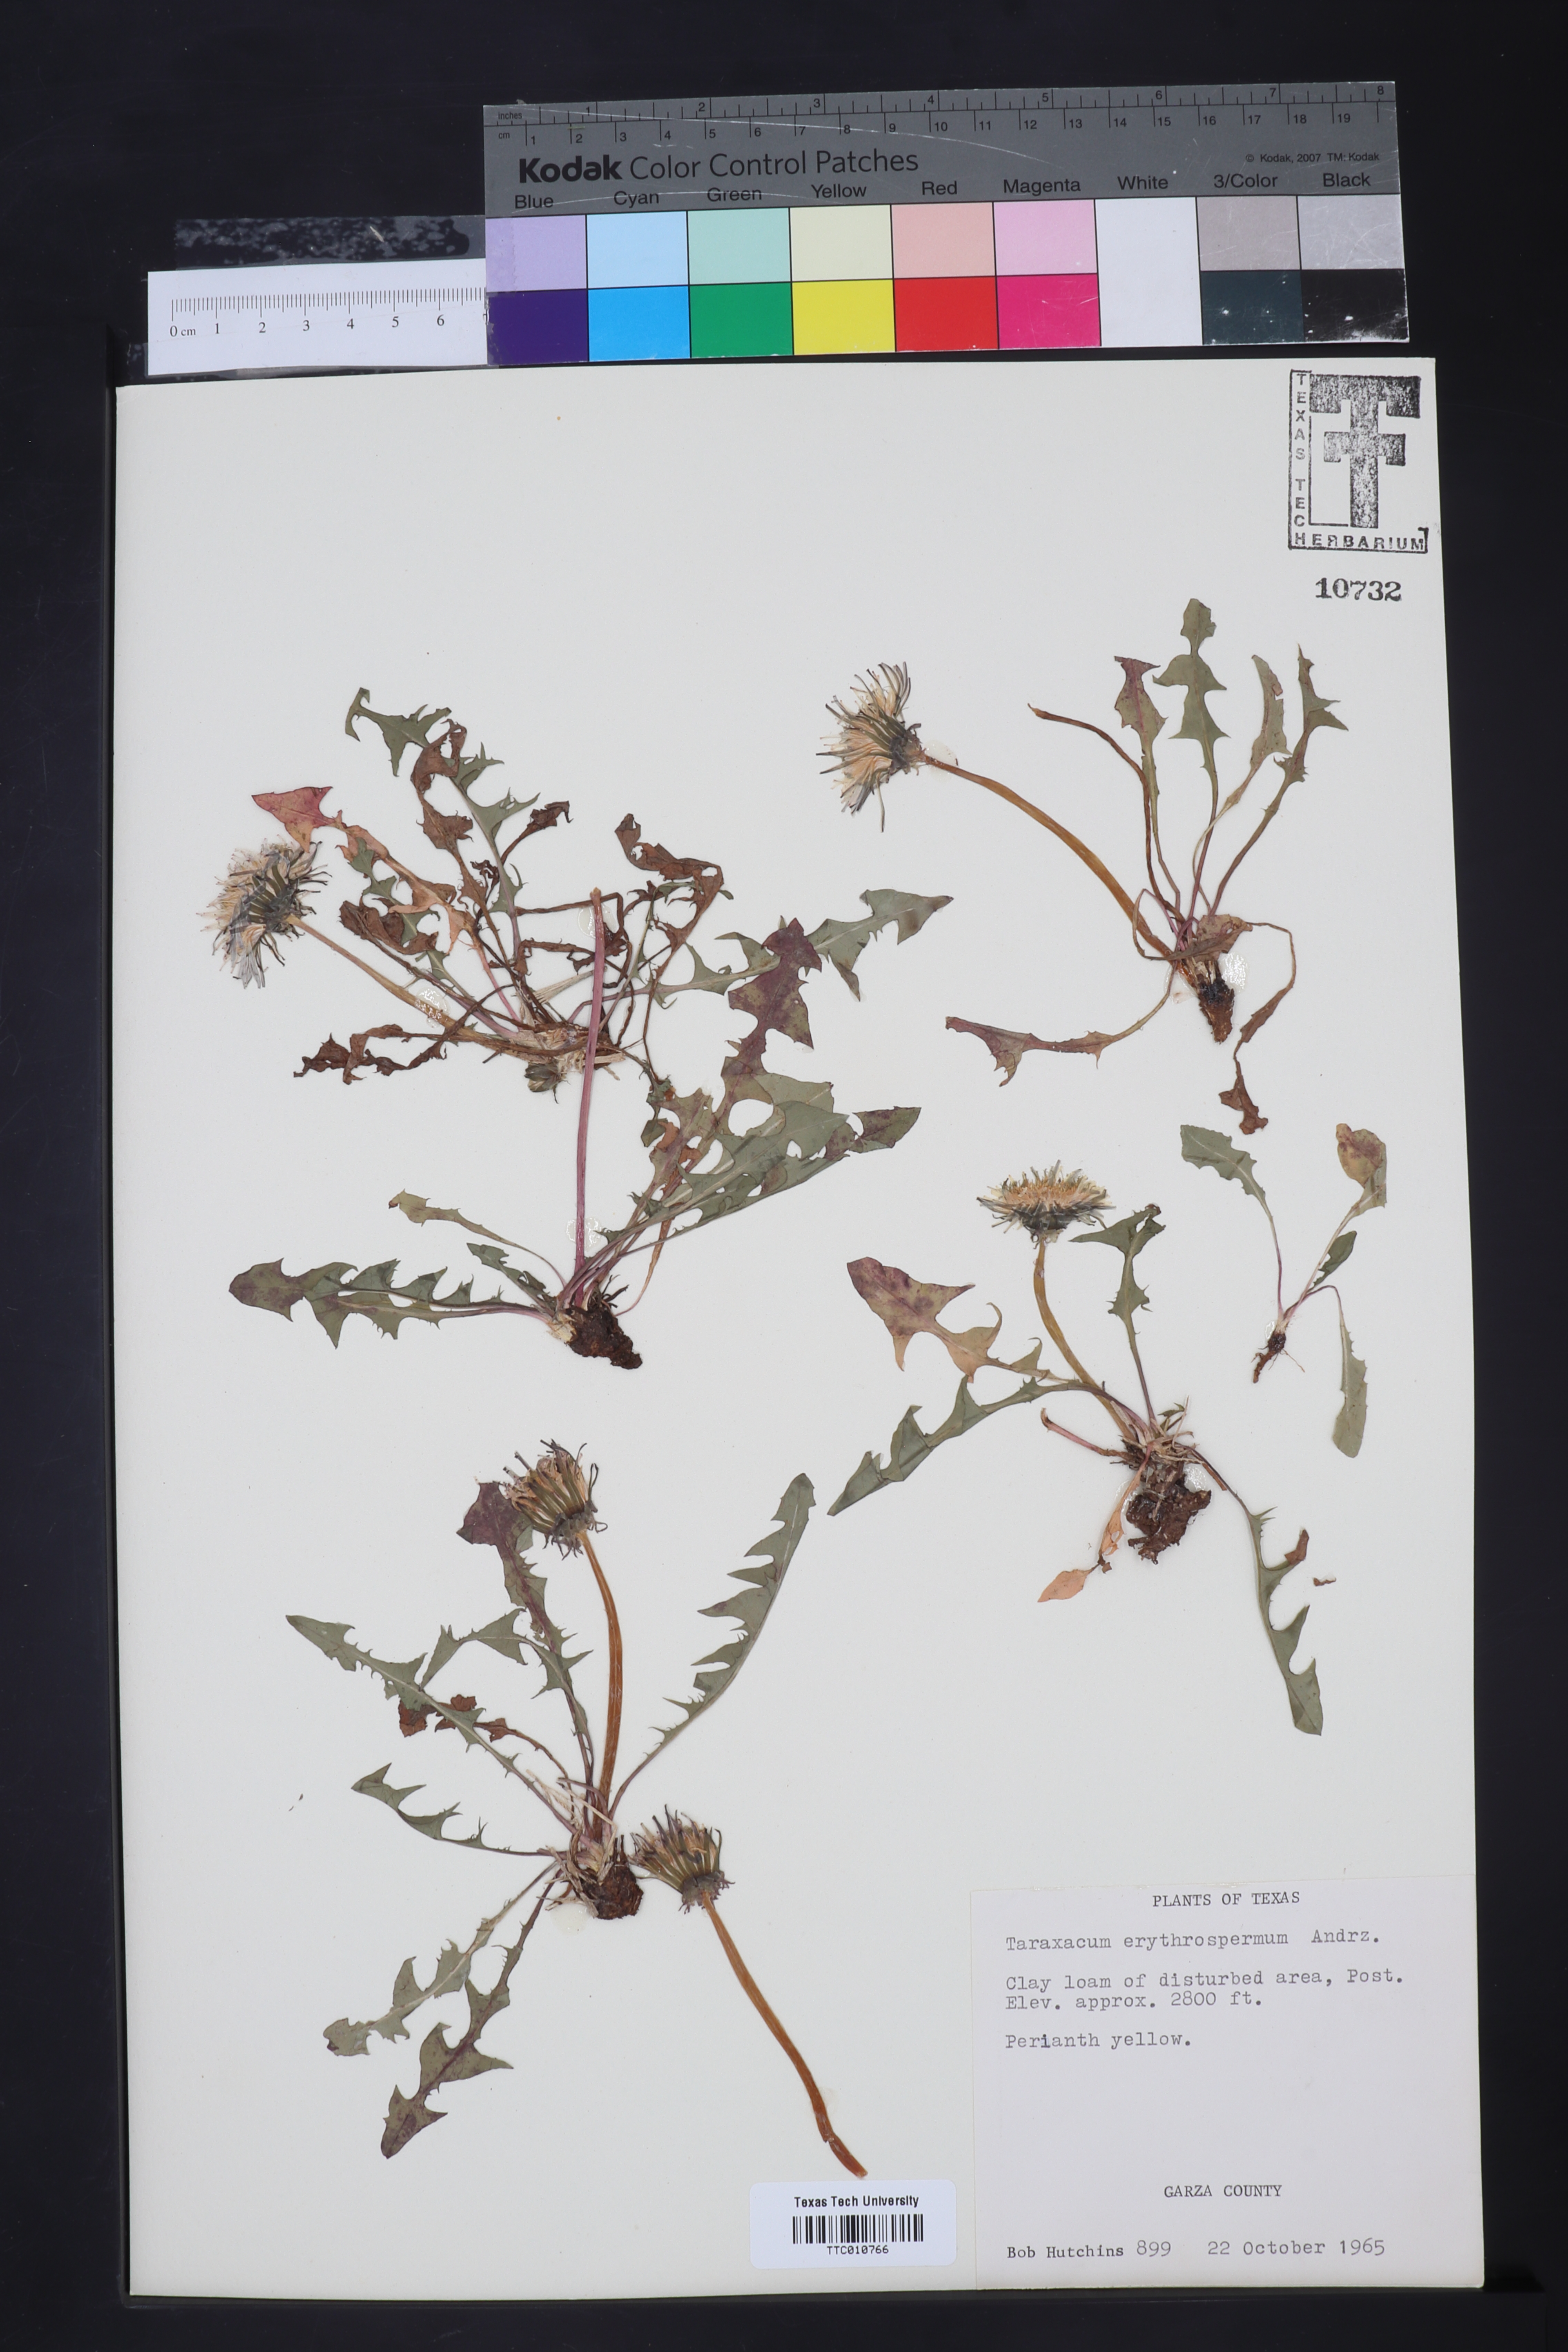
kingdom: Plantae
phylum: Tracheophyta
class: Magnoliopsida
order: Asterales
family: Asteraceae
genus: Taraxacum
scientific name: Taraxacum erythrospermum
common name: Rock dandelion
